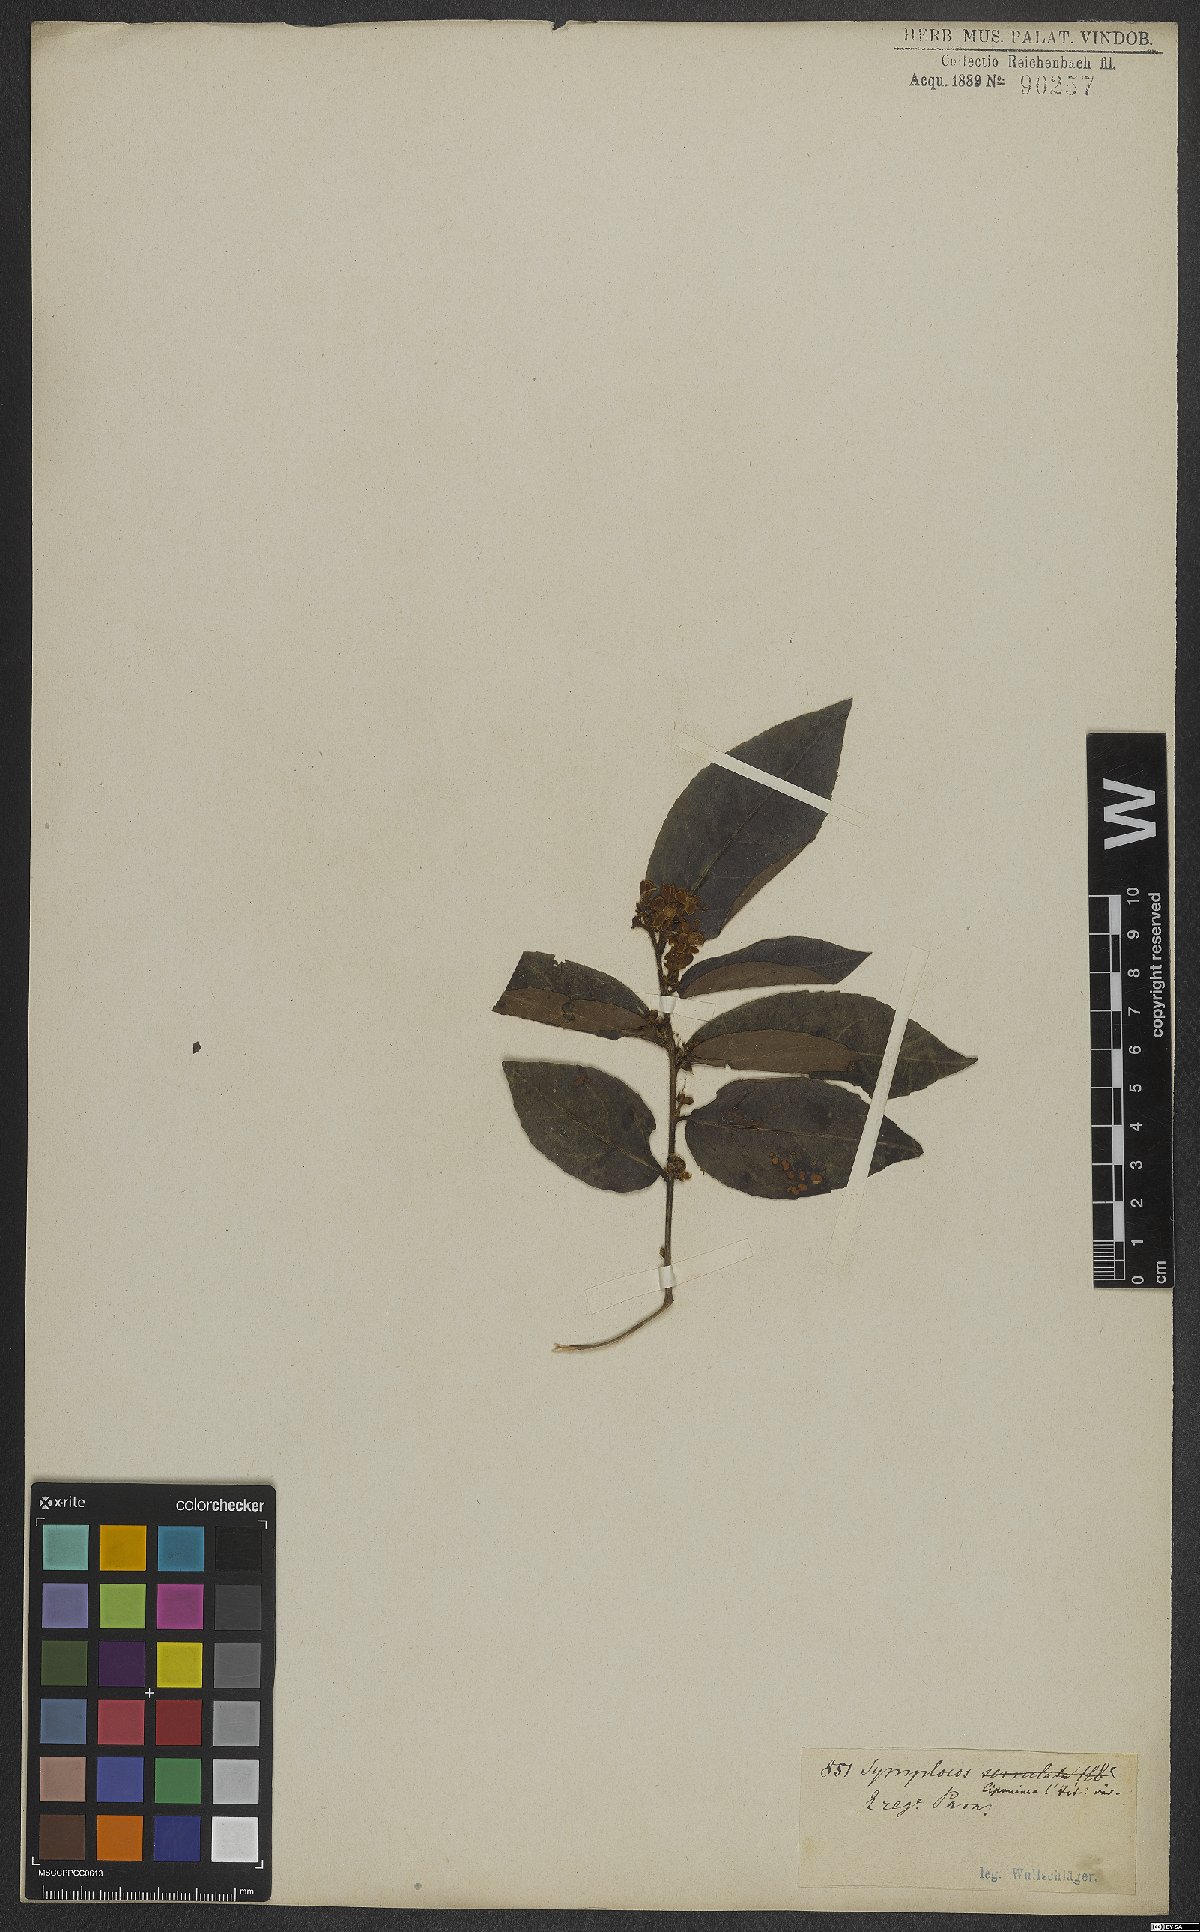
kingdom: Plantae
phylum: Tracheophyta
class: Magnoliopsida
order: Ericales
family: Symplocaceae
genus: Symplocos
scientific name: Symplocos guianensis
